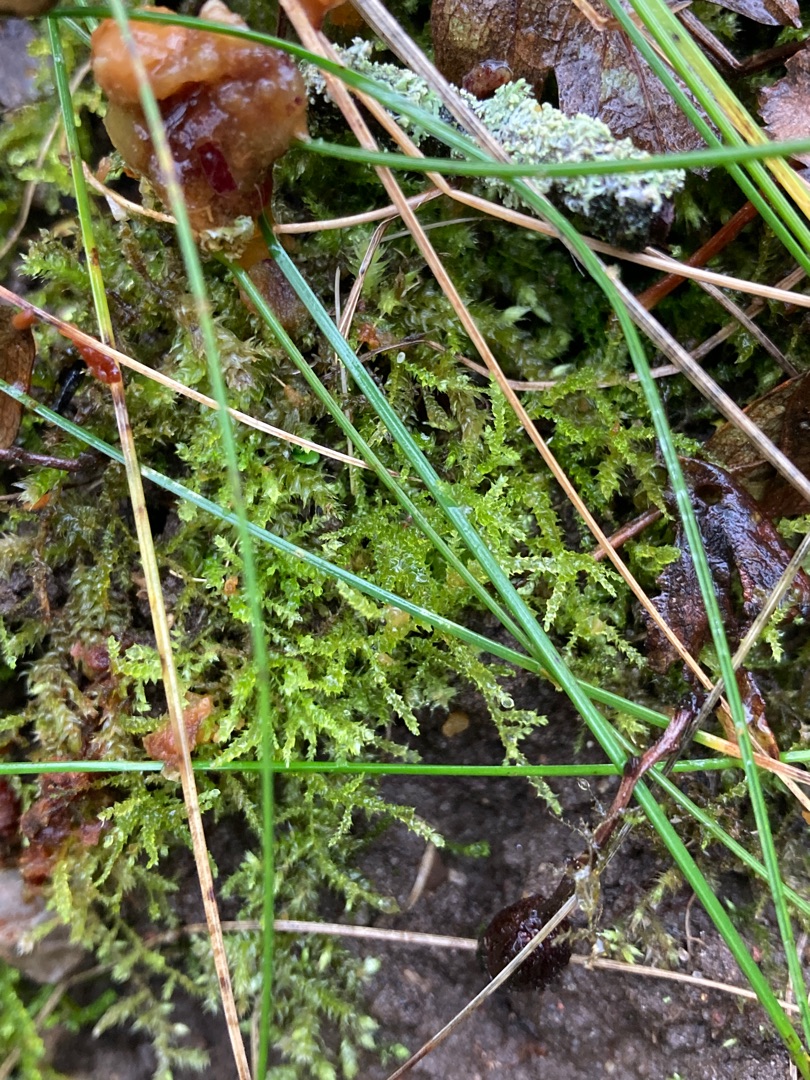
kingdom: Plantae
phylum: Bryophyta
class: Bryopsida
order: Hypnales
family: Brachytheciaceae
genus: Oxyrrhynchium
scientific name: Oxyrrhynchium hians
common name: Ler-vortetand
